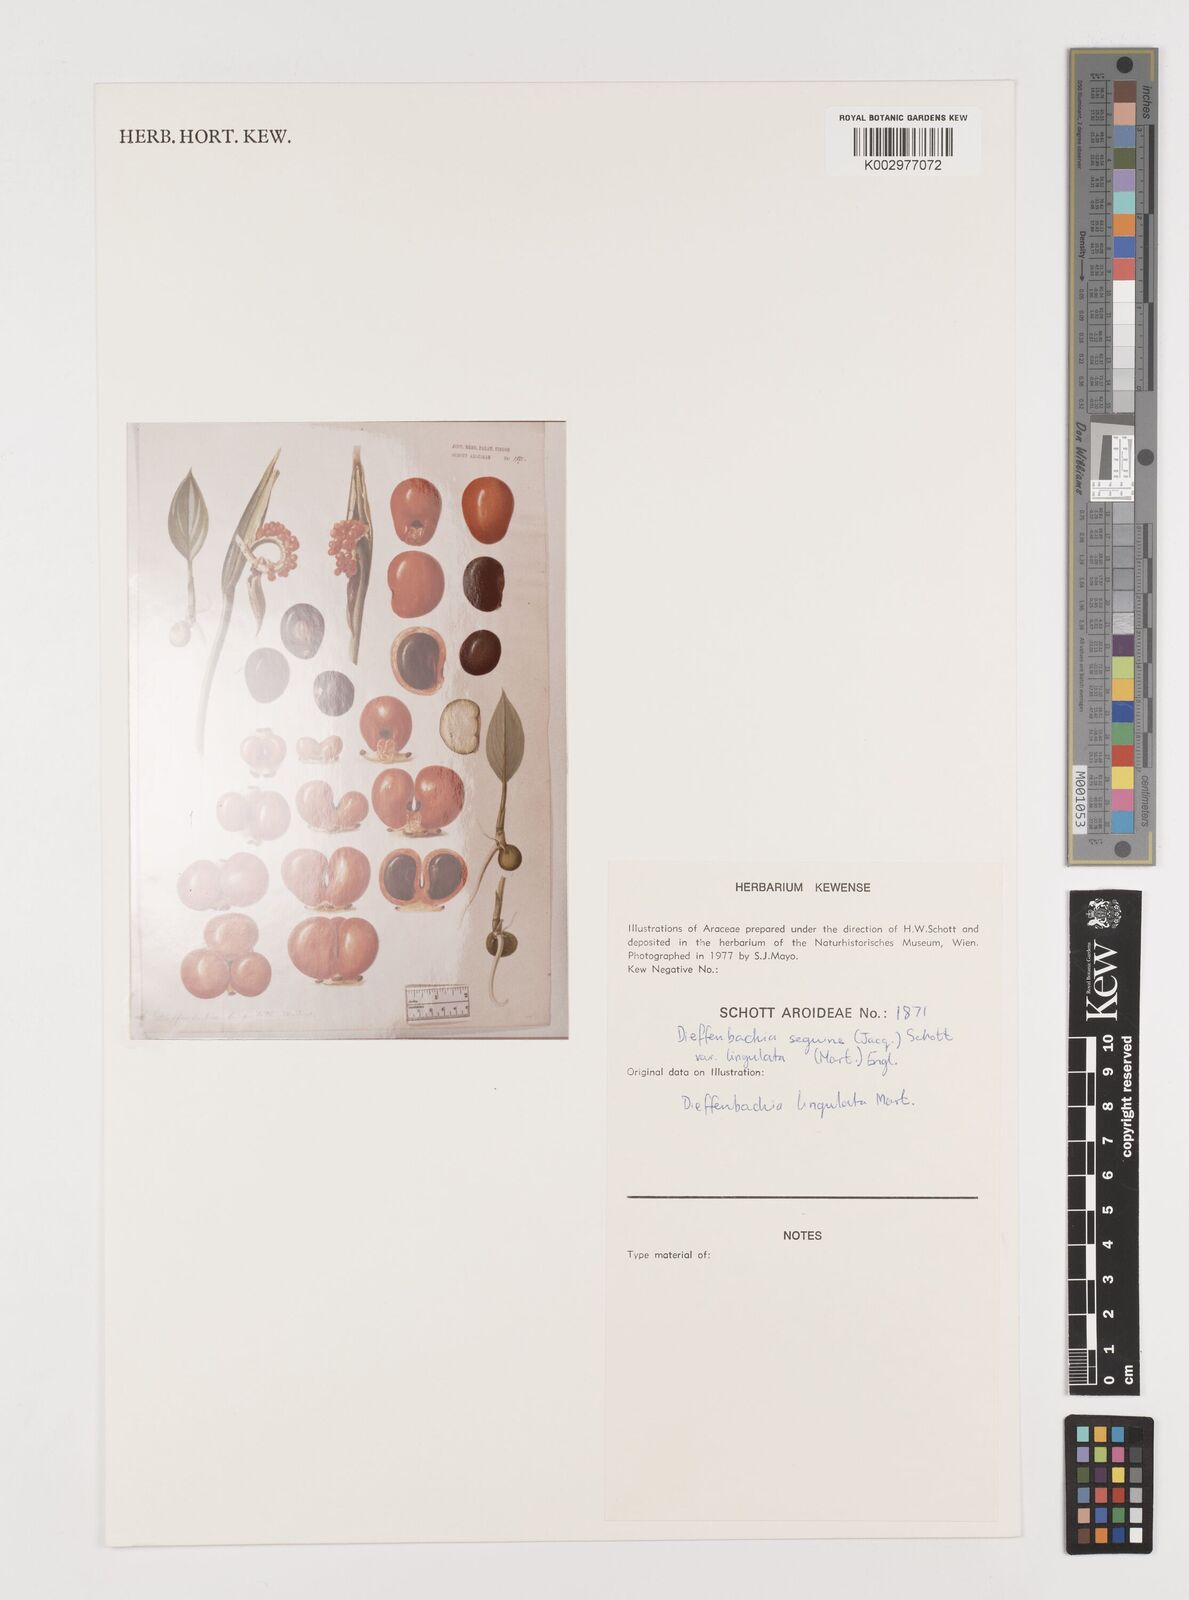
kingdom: Plantae
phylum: Tracheophyta
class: Liliopsida
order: Alismatales
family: Araceae
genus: Dieffenbachia
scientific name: Dieffenbachia seguine
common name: Dumbcane
